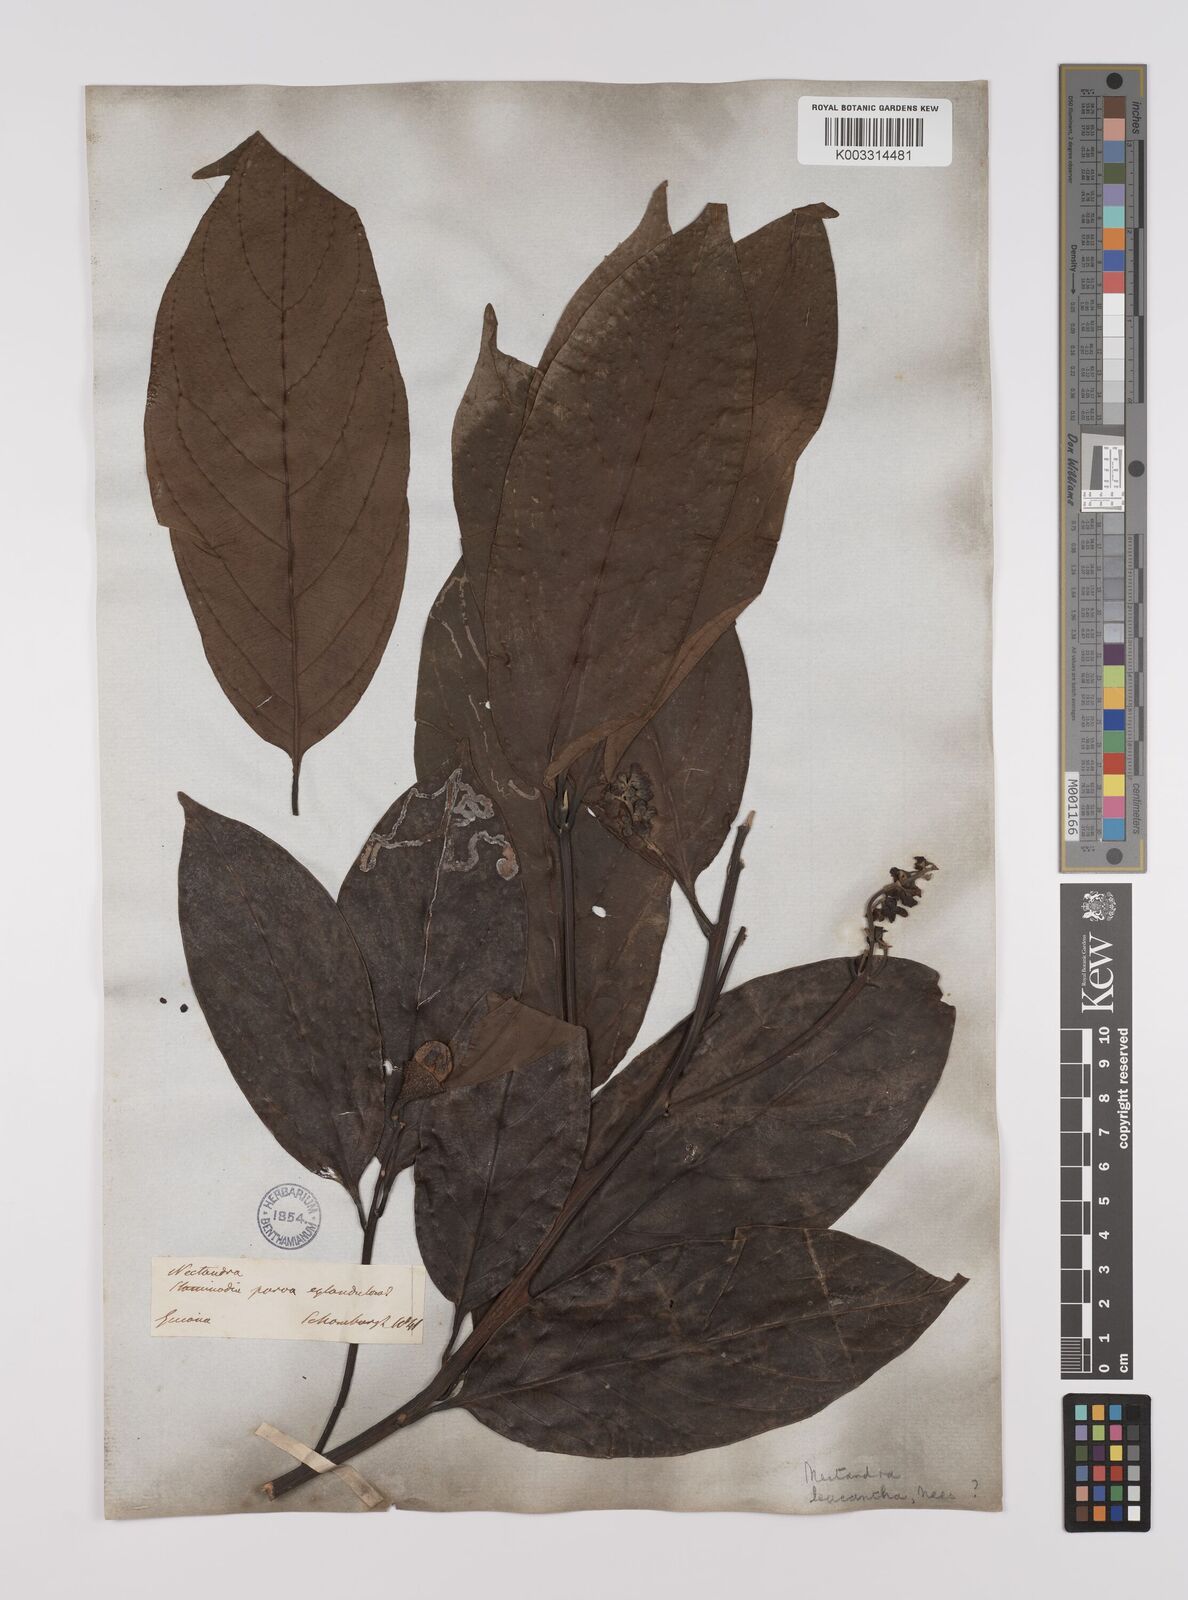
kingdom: Plantae
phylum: Tracheophyta
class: Magnoliopsida
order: Laurales
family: Lauraceae
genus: Nectandra
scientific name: Nectandra leucantha
